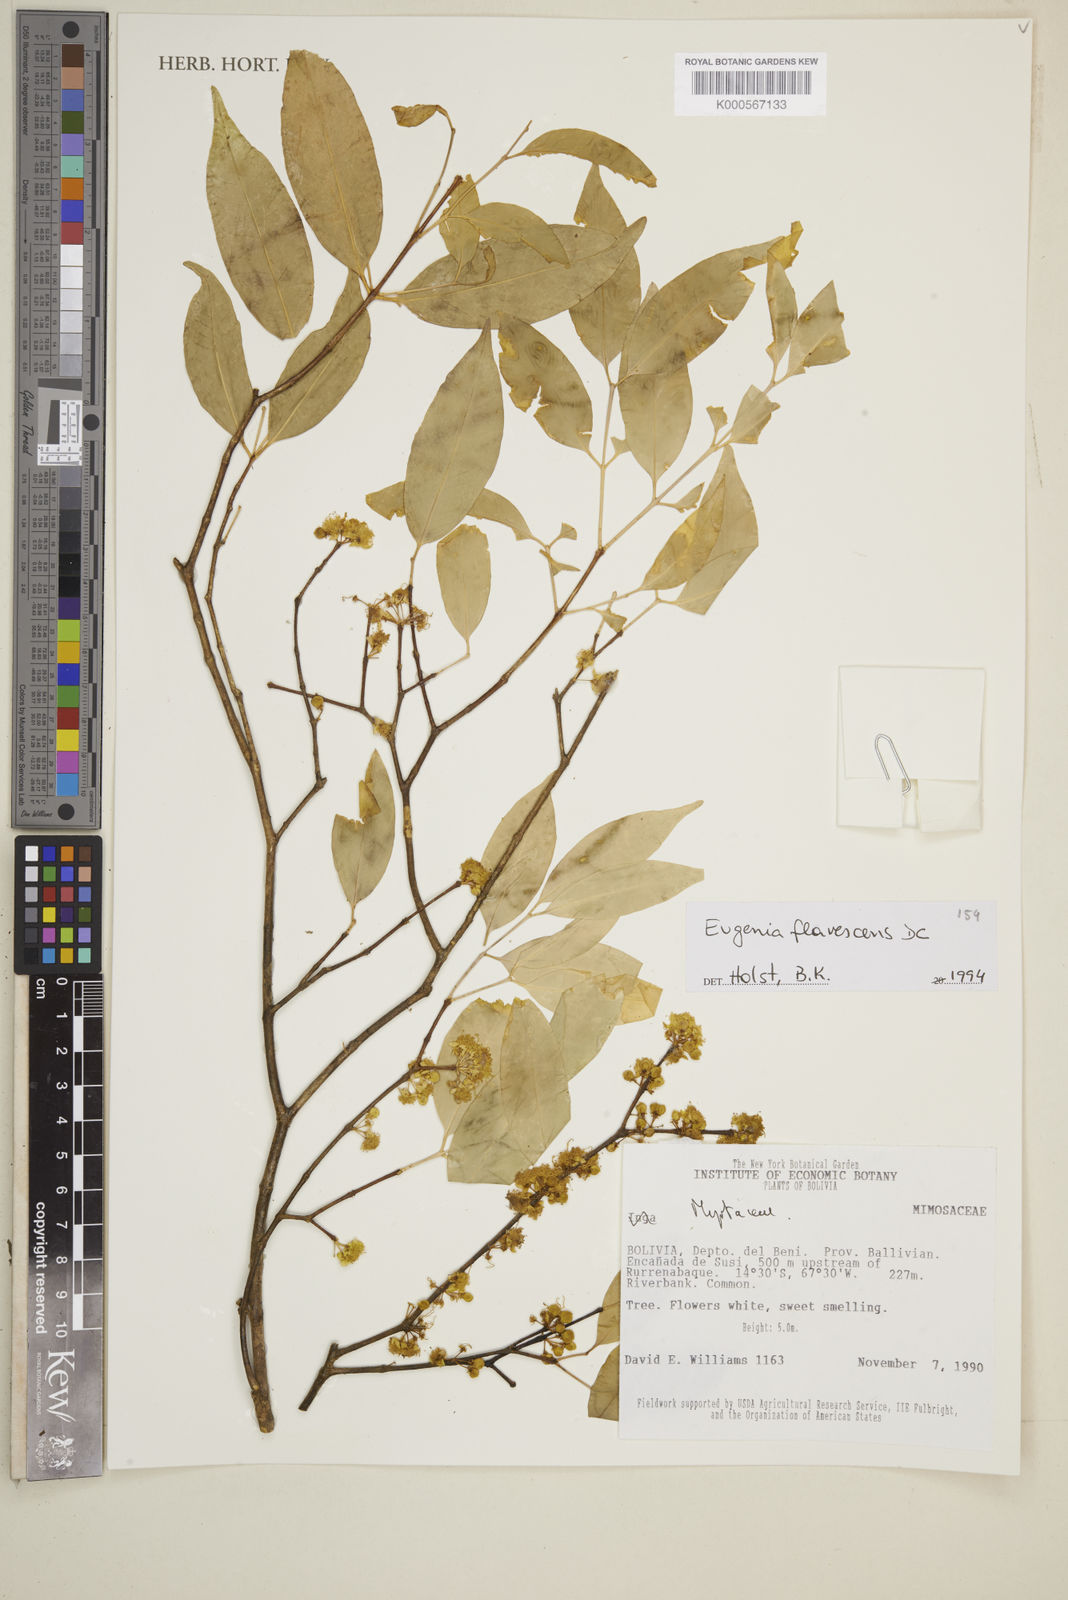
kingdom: Plantae
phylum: Tracheophyta
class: Magnoliopsida
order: Myrtales
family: Myrtaceae
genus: Eugenia
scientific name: Eugenia flavescens
